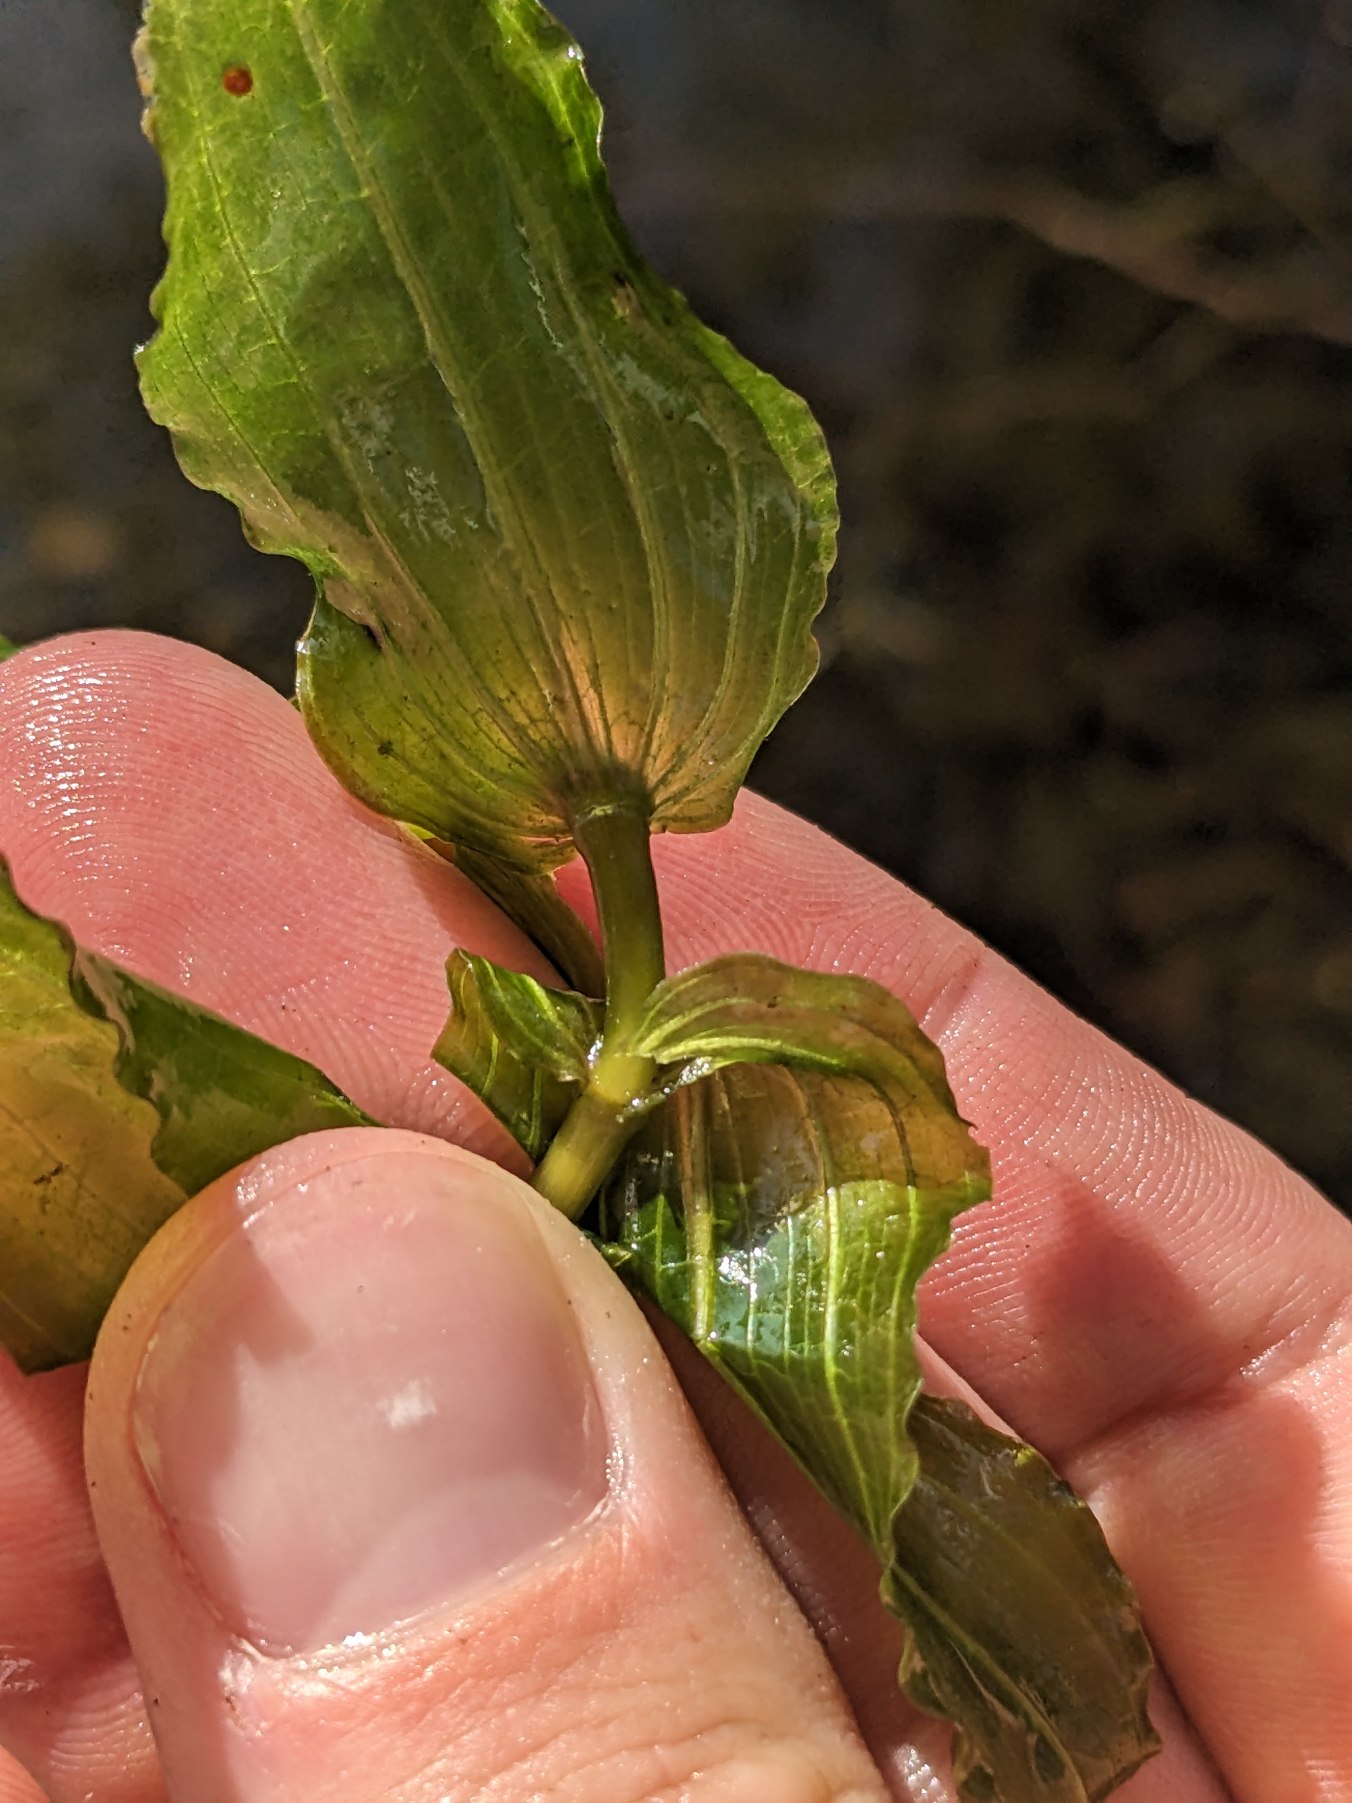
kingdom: Plantae
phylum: Tracheophyta
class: Liliopsida
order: Alismatales
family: Potamogetonaceae
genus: Potamogeton
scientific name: Potamogeton perfoliatus
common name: Hjertebladet vandaks
